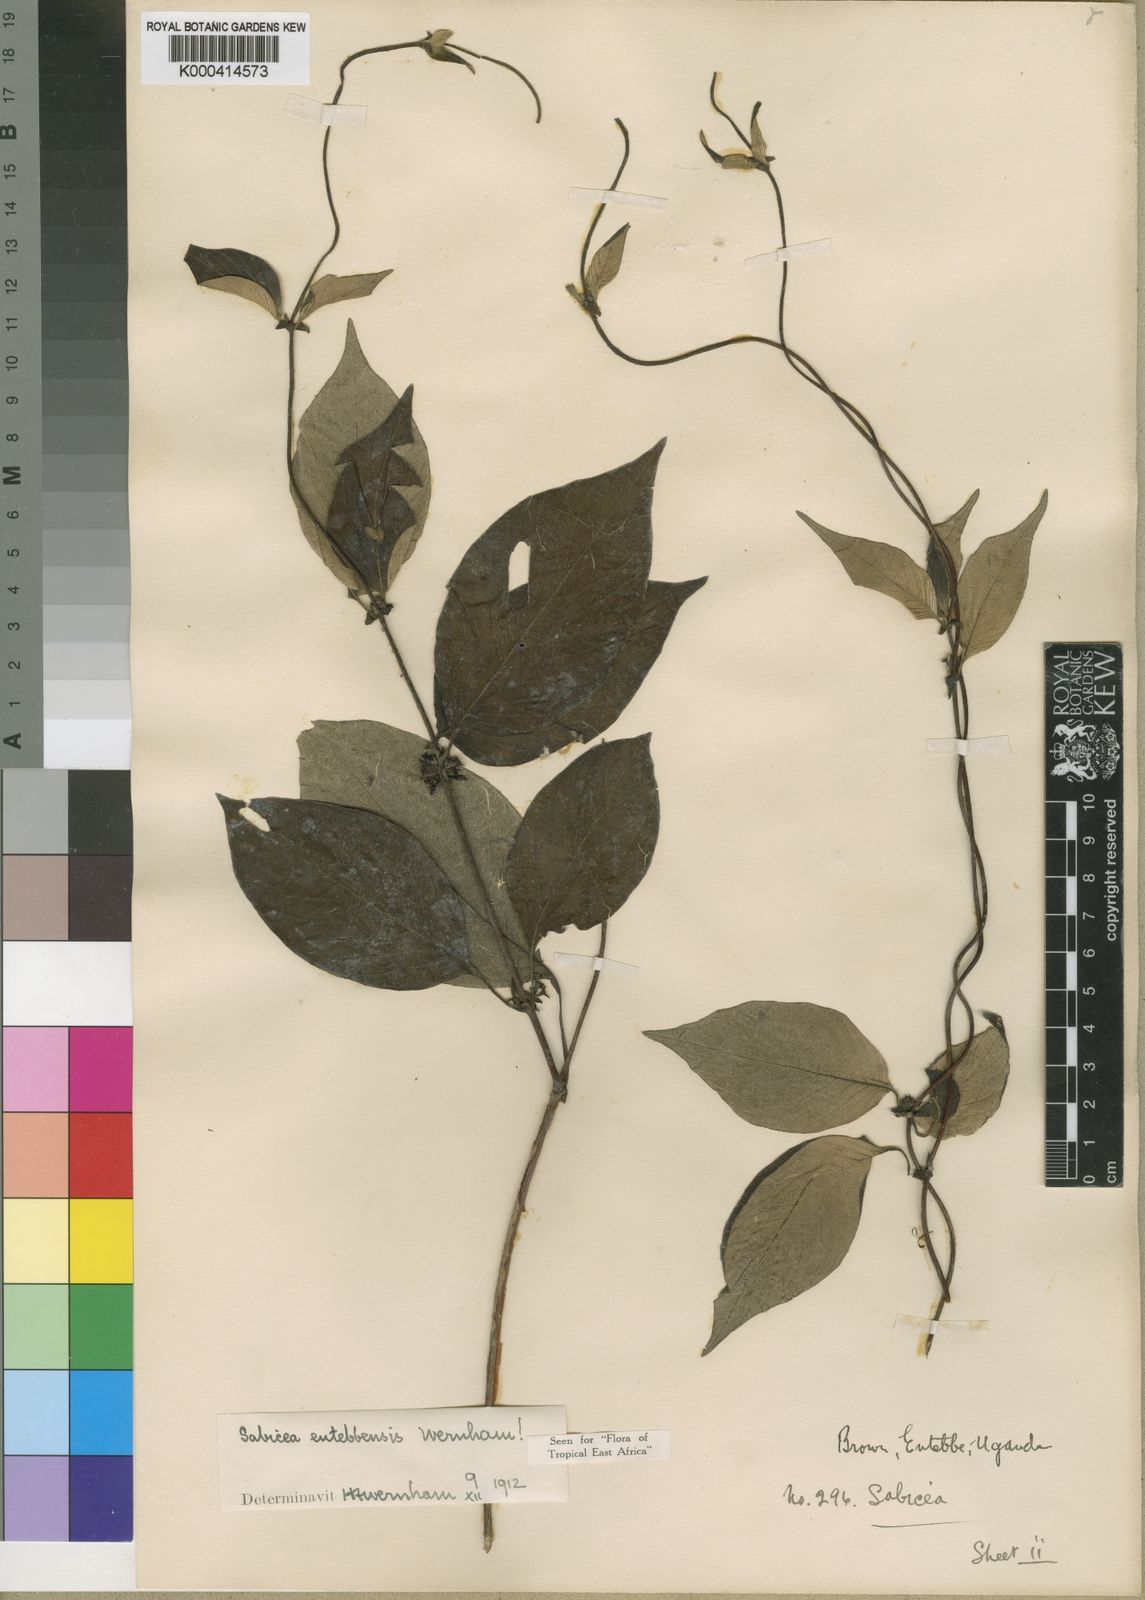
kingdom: Plantae
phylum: Tracheophyta
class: Magnoliopsida
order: Gentianales
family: Rubiaceae
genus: Sabicea
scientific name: Sabicea entebbensis
